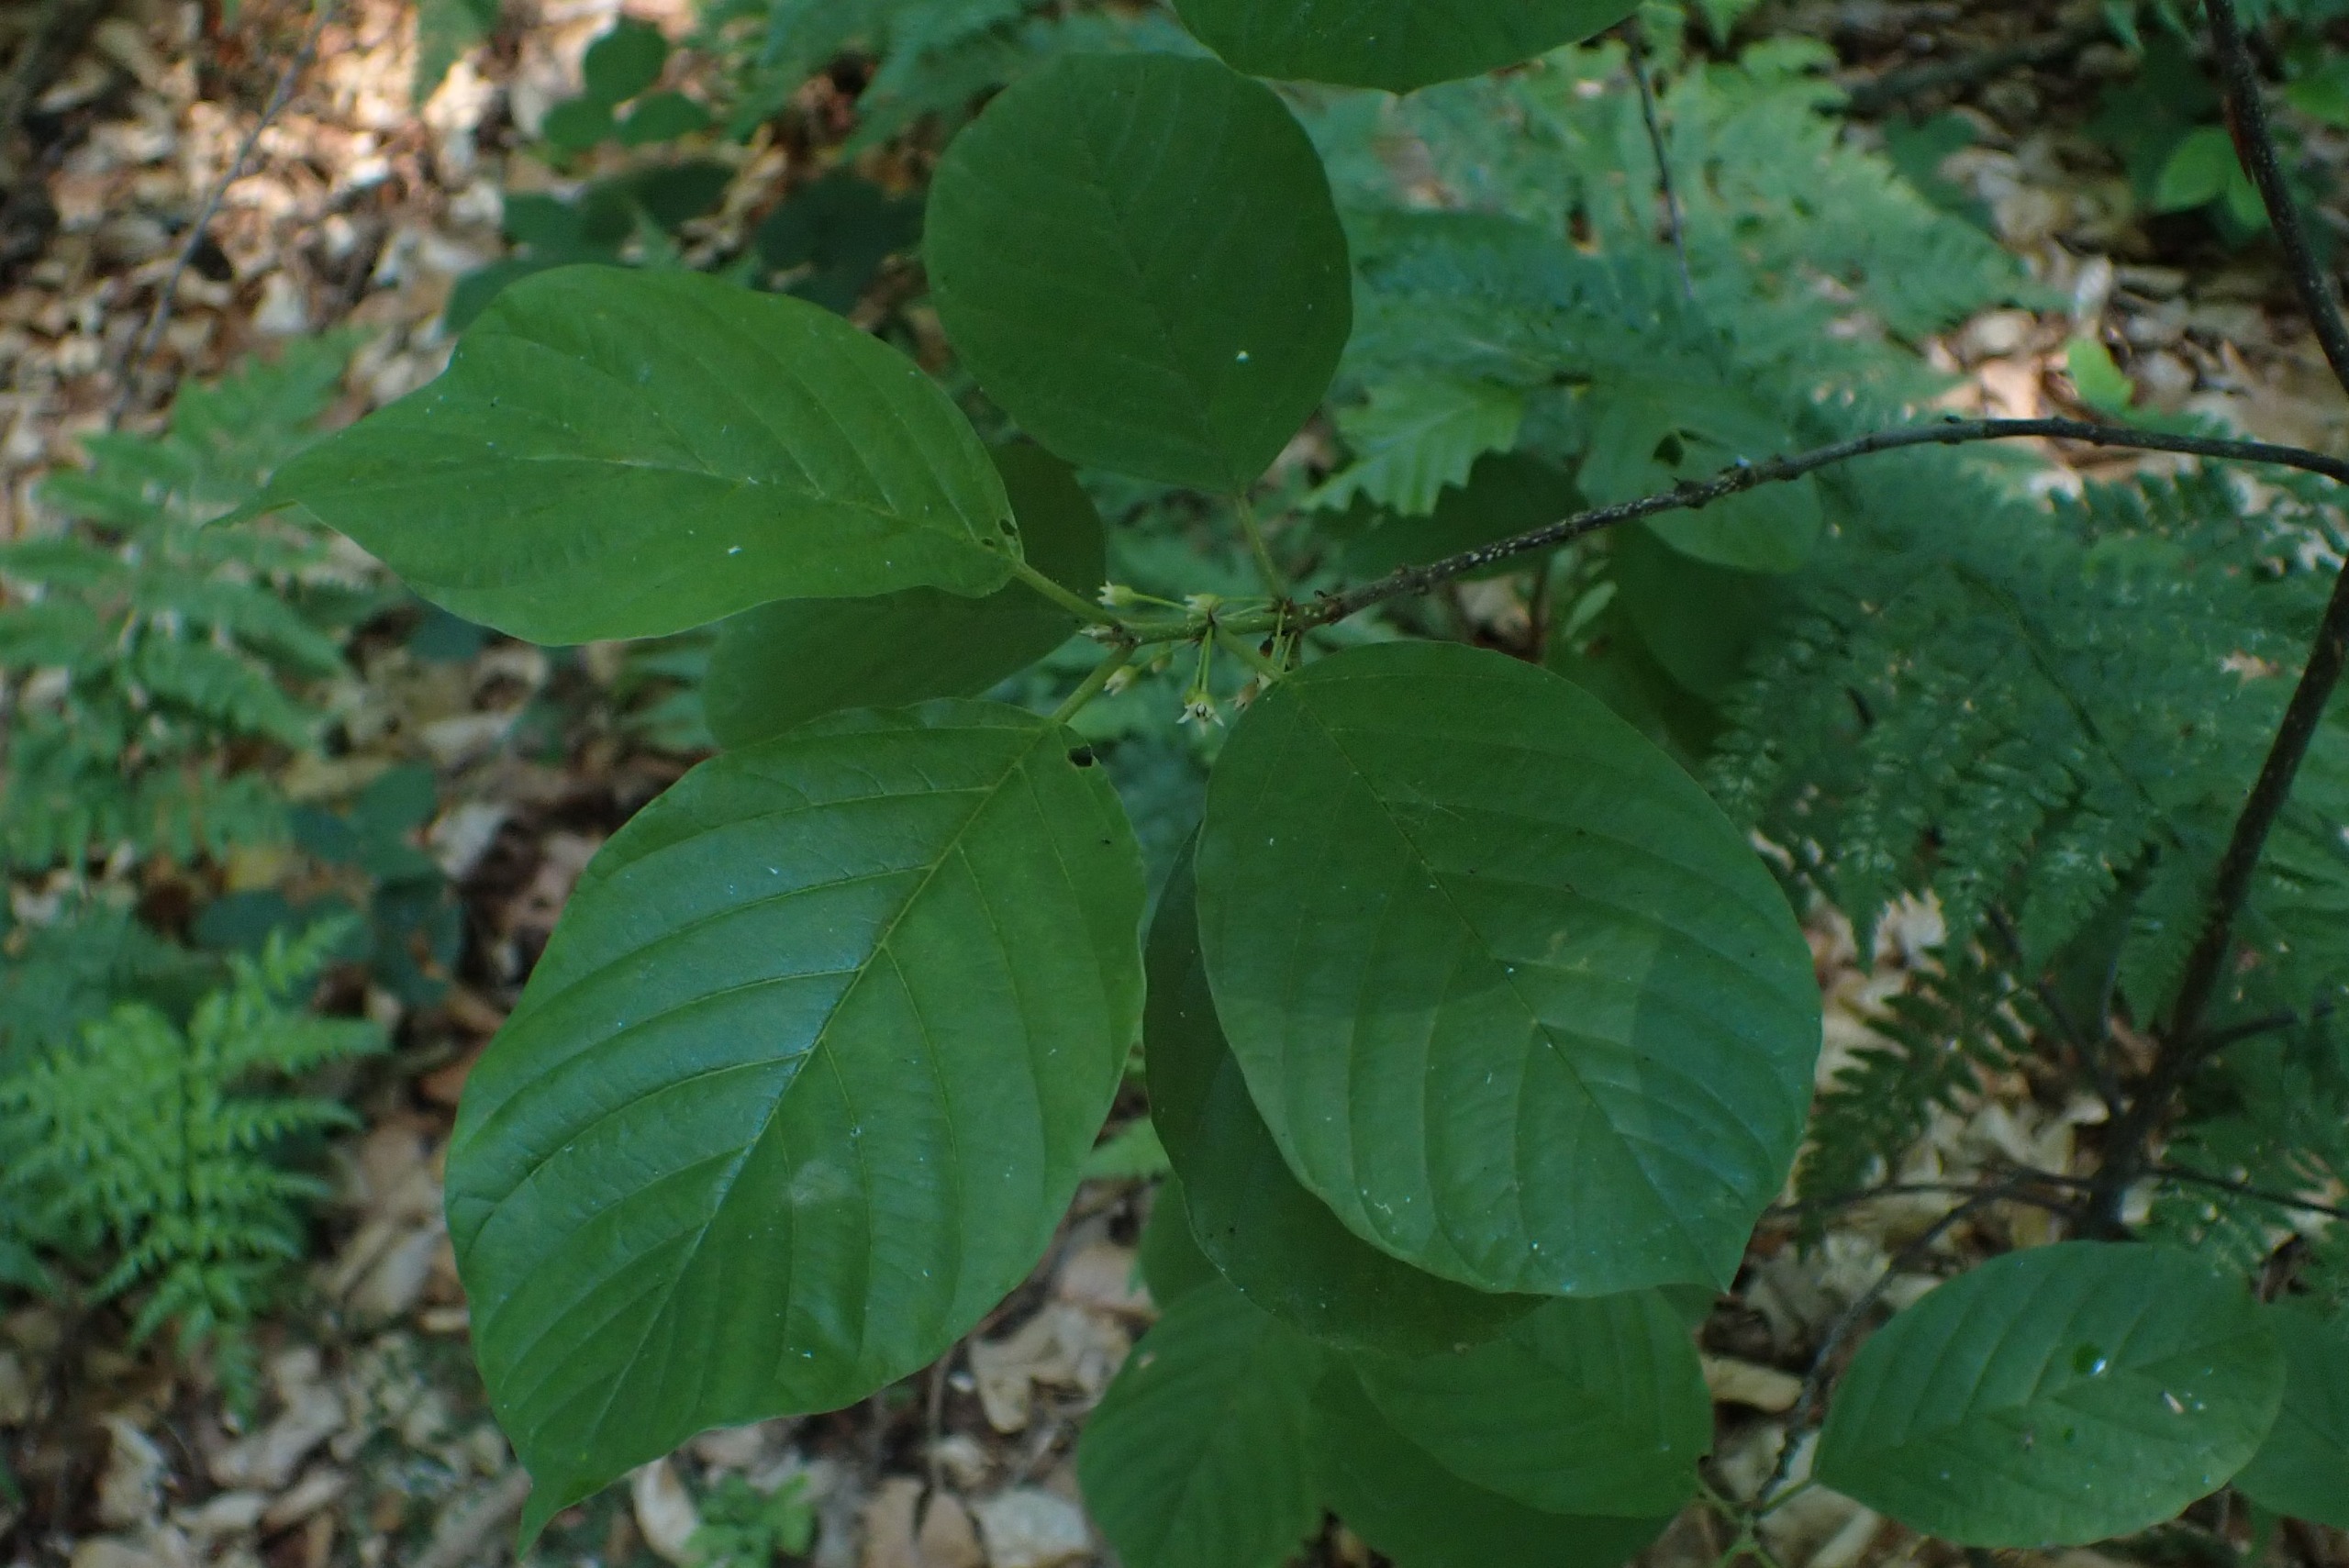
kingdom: Plantae
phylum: Tracheophyta
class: Magnoliopsida
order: Rosales
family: Rhamnaceae
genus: Frangula
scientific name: Frangula alnus
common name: Tørst
